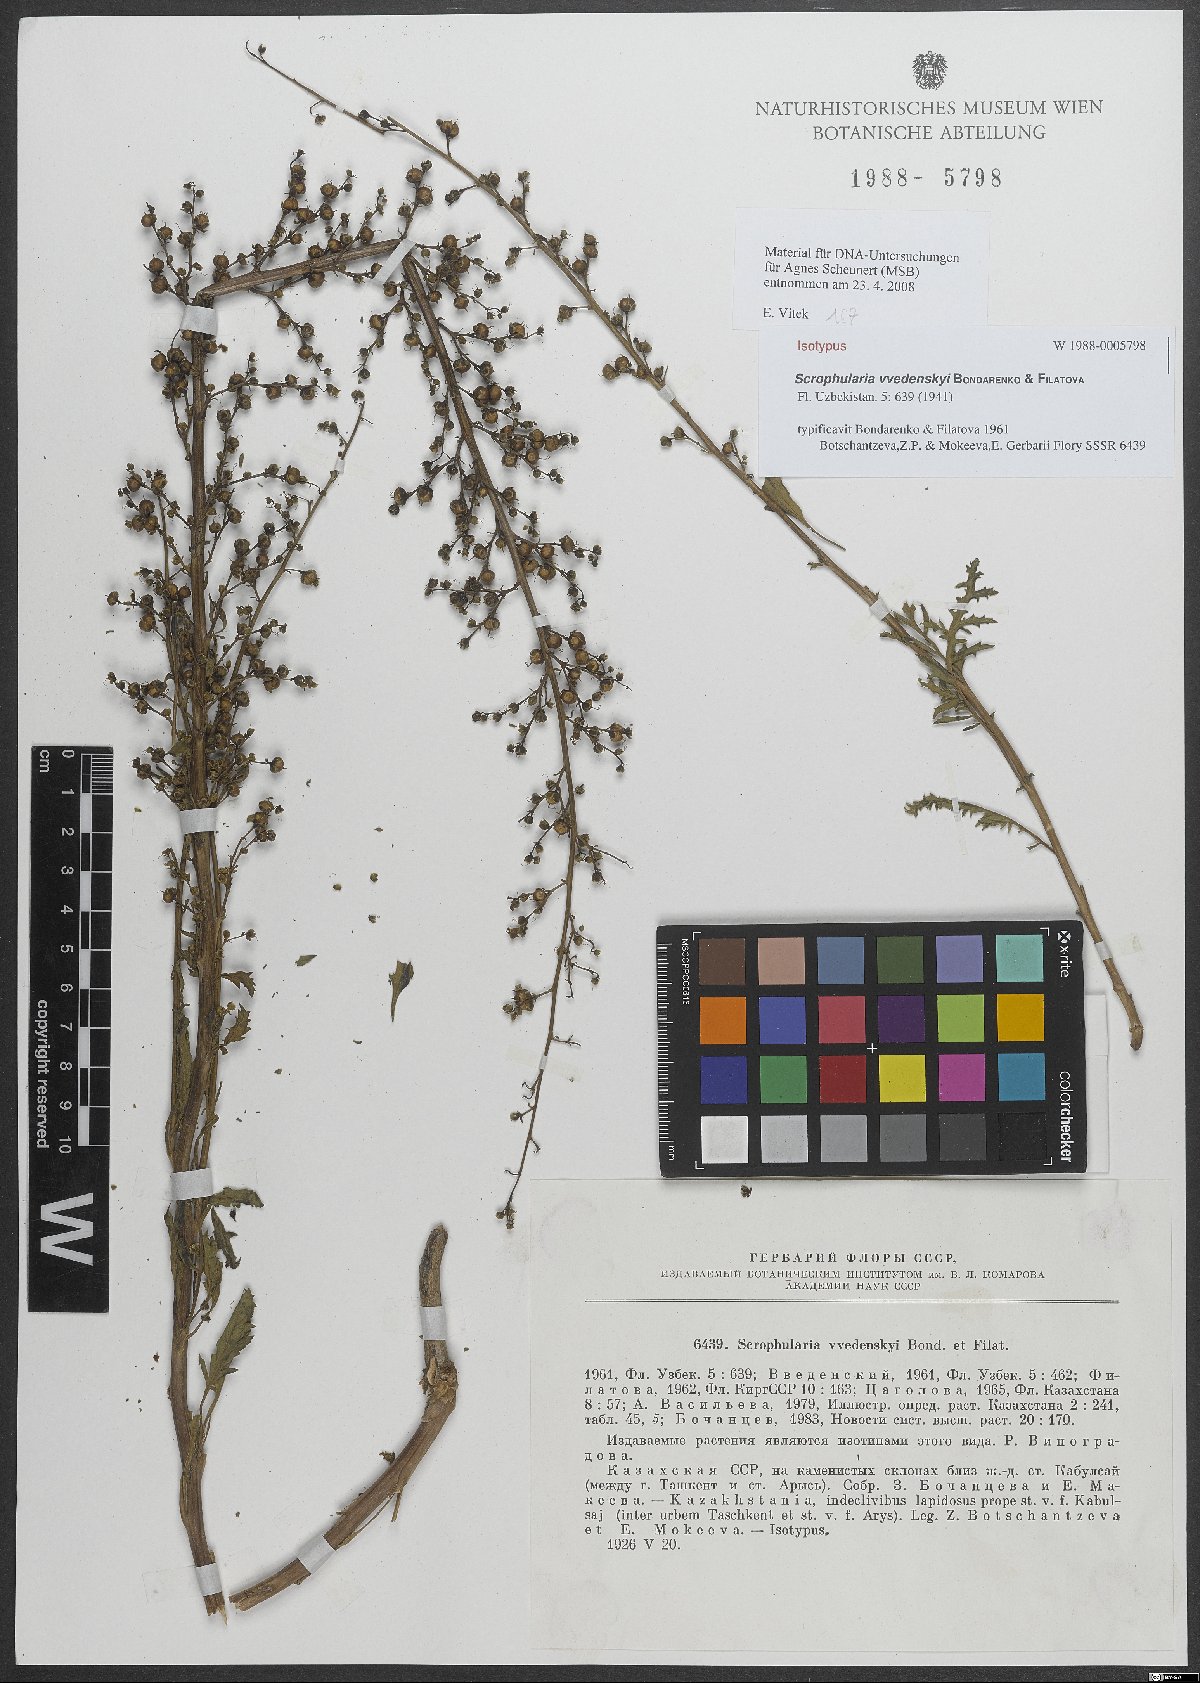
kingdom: Plantae
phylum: Tracheophyta
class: Magnoliopsida
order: Lamiales
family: Scrophulariaceae
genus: Scrophularia
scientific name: Scrophularia vvedenskyi
